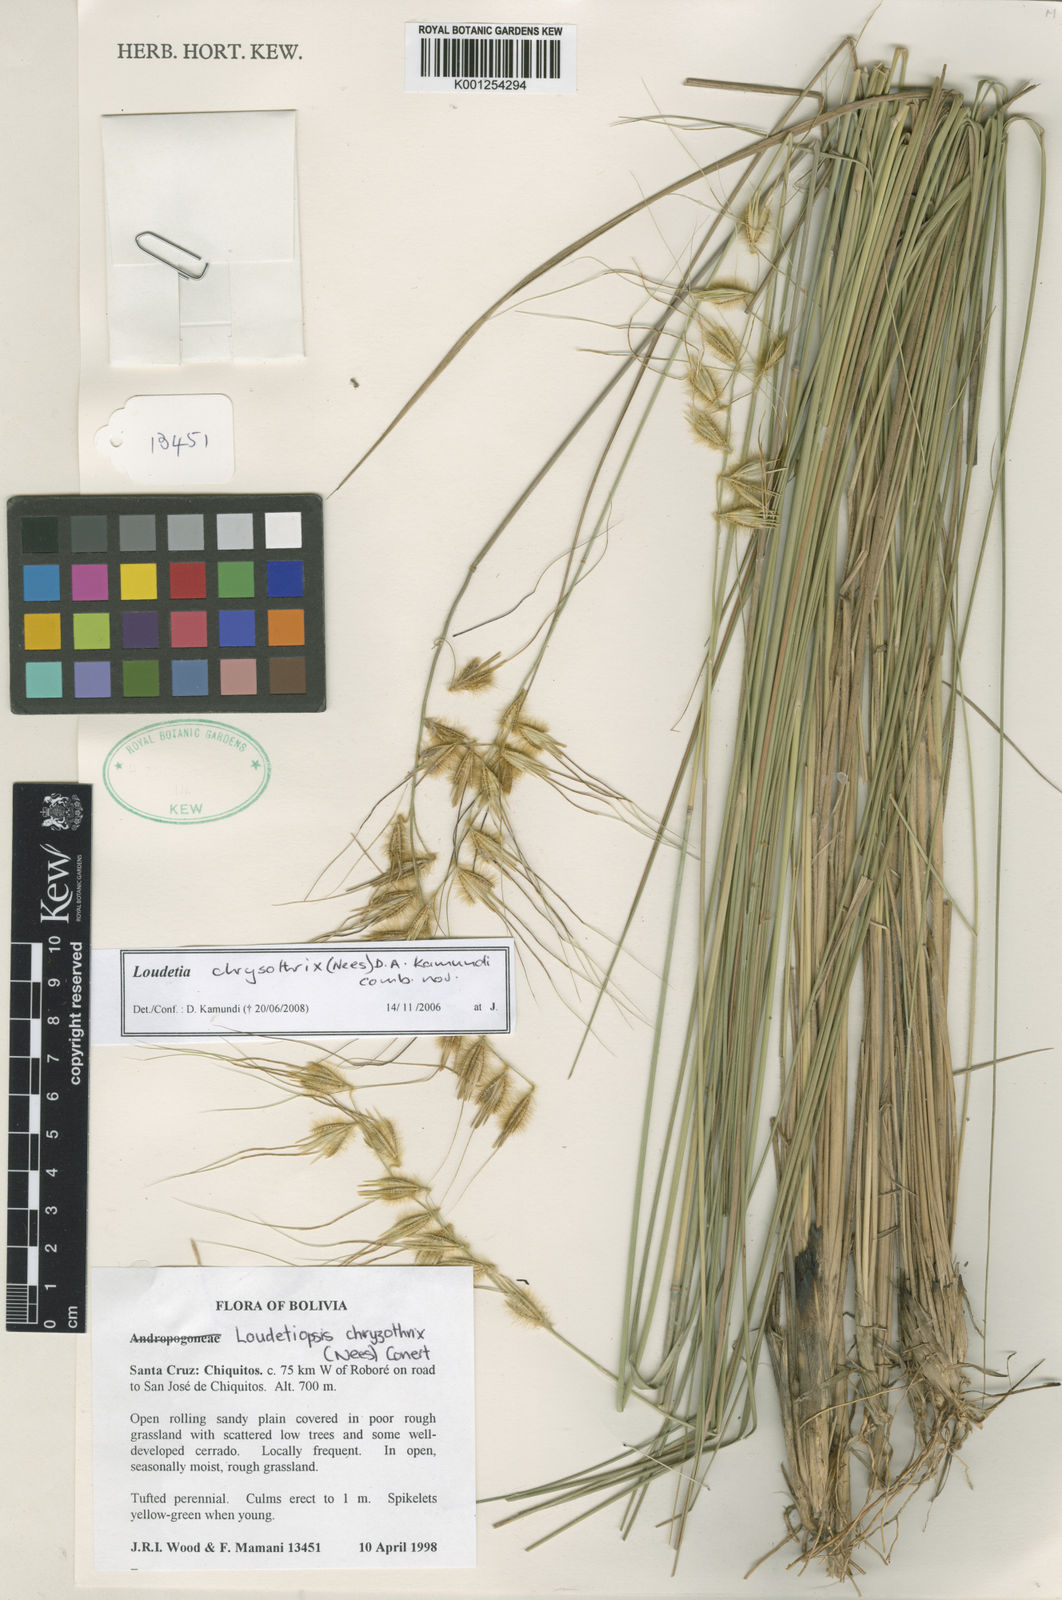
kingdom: Plantae
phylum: Tracheophyta
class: Liliopsida
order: Poales
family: Poaceae
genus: Loudetiopsis
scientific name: Loudetiopsis chrysothrix
